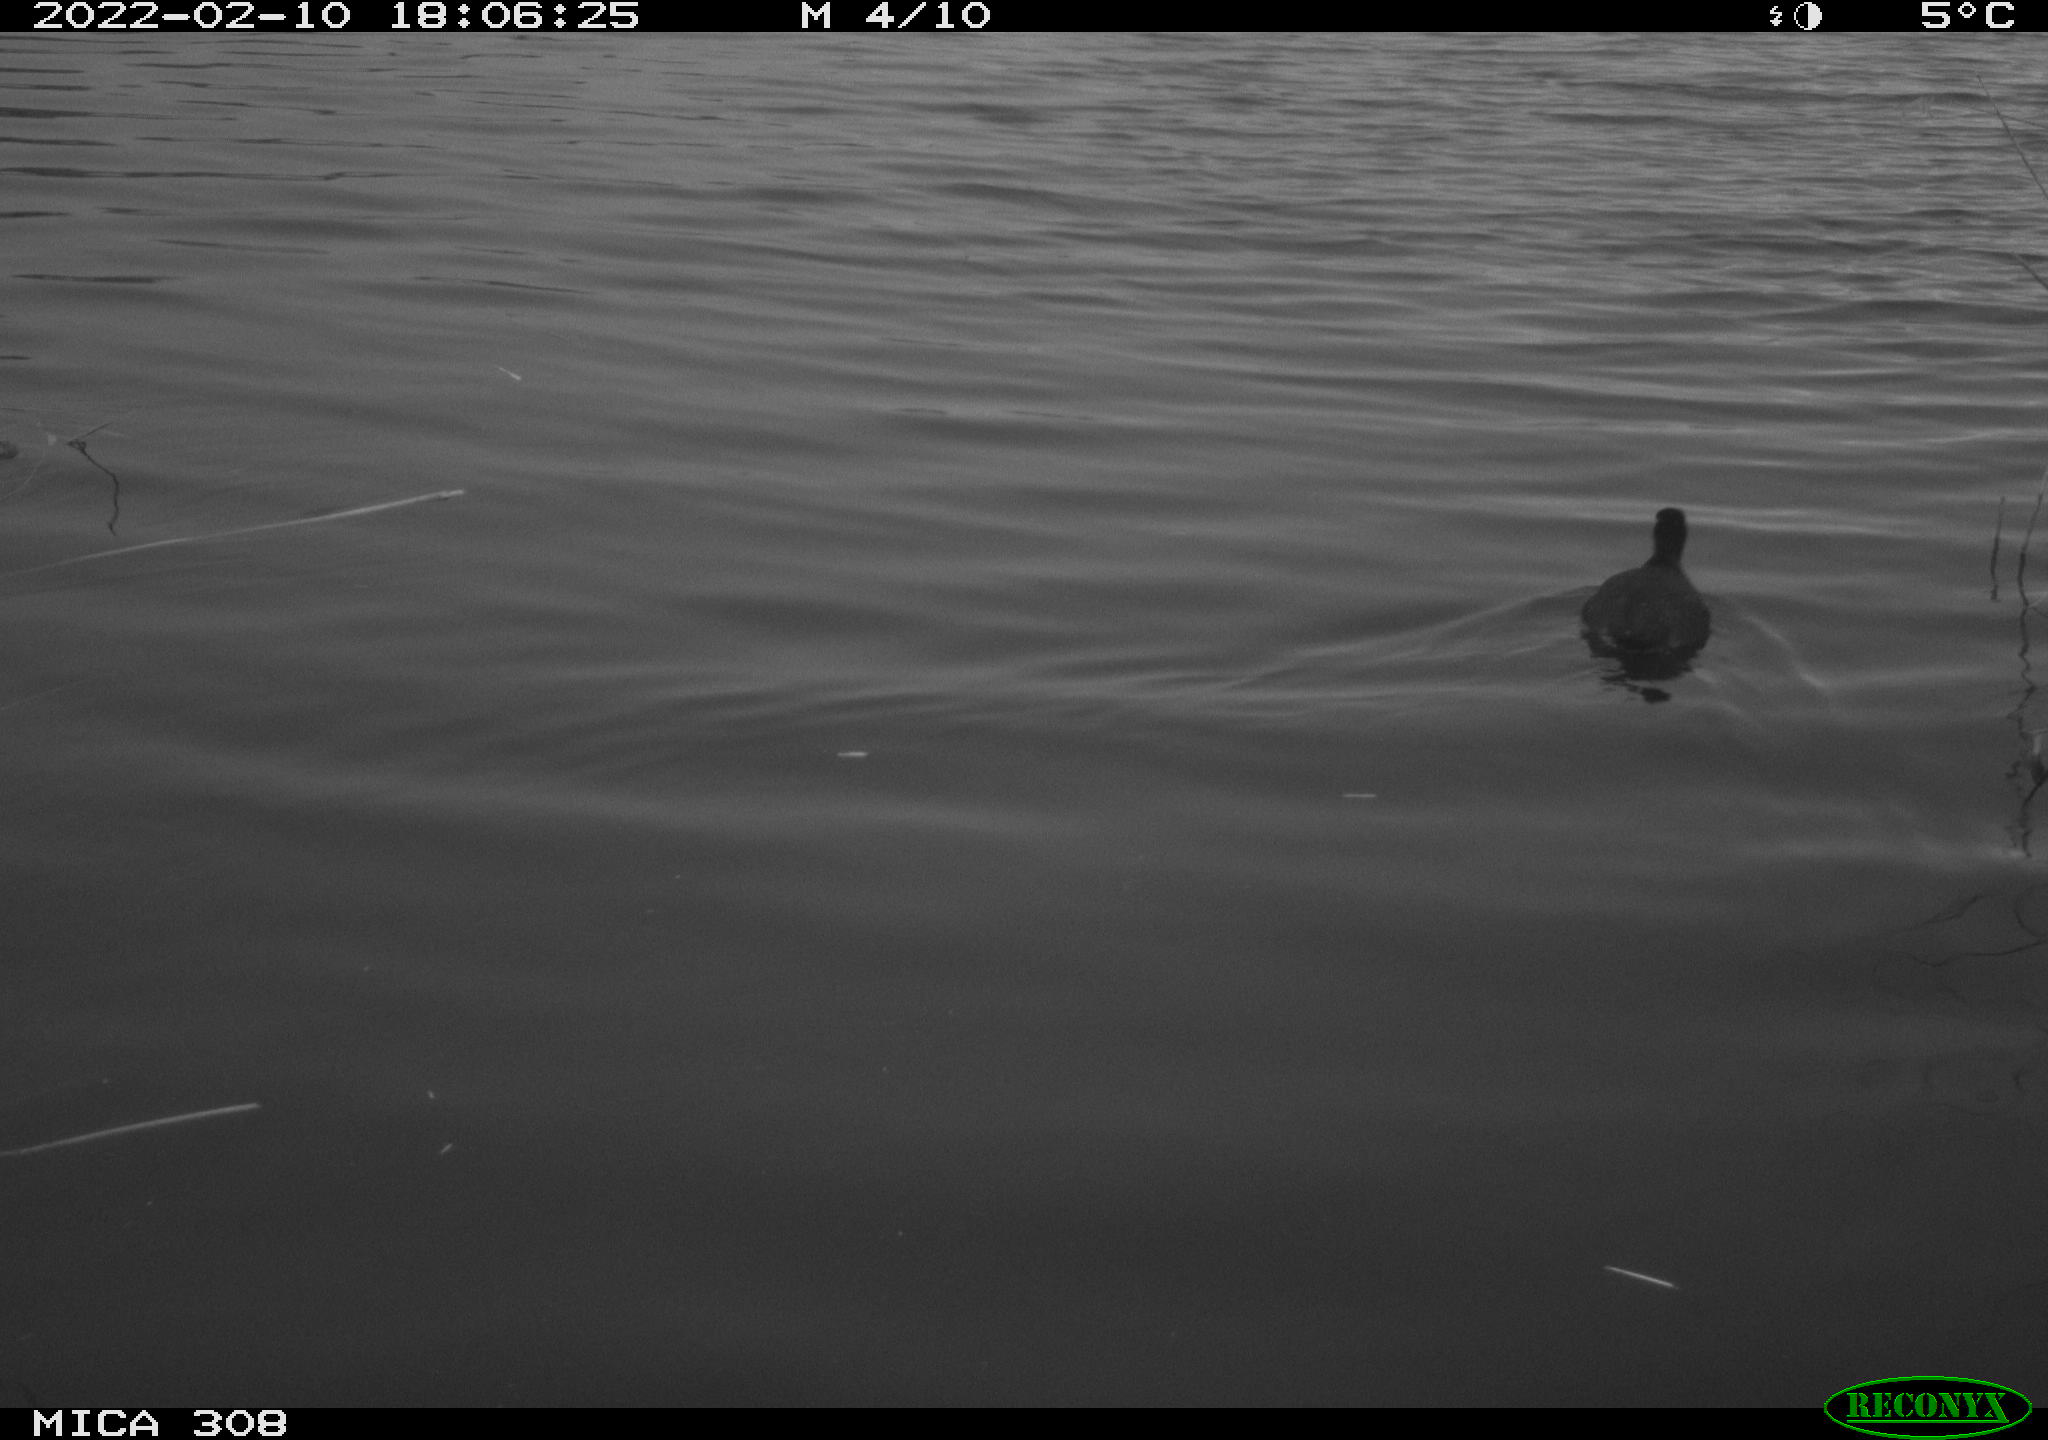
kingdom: Animalia
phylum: Chordata
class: Aves
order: Gruiformes
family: Rallidae
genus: Fulica
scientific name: Fulica atra
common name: Eurasian coot
